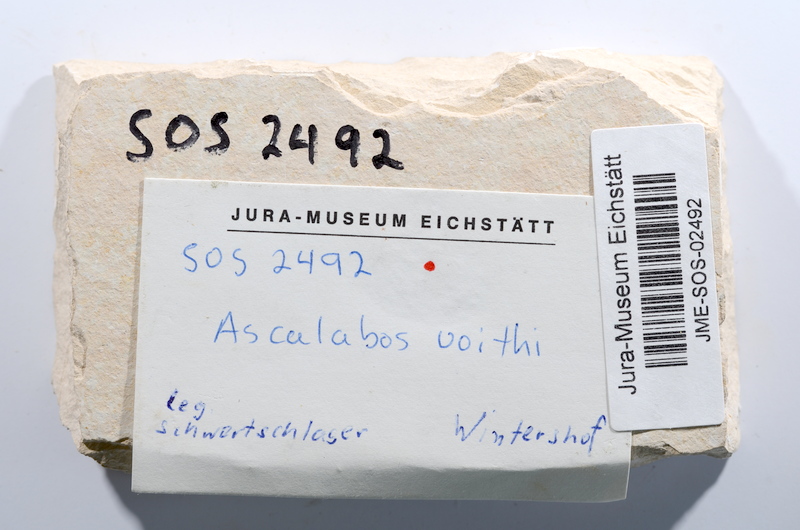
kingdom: Animalia
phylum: Chordata
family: Ascalaboidae
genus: Ascalabos
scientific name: Ascalabos voithii
